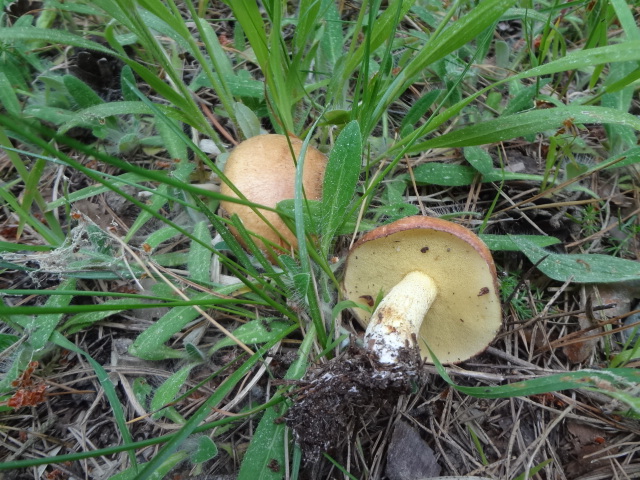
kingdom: Fungi
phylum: Basidiomycota
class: Agaricomycetes
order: Boletales
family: Suillaceae
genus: Suillus
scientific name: Suillus granulatus
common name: kornet slimrørhat
